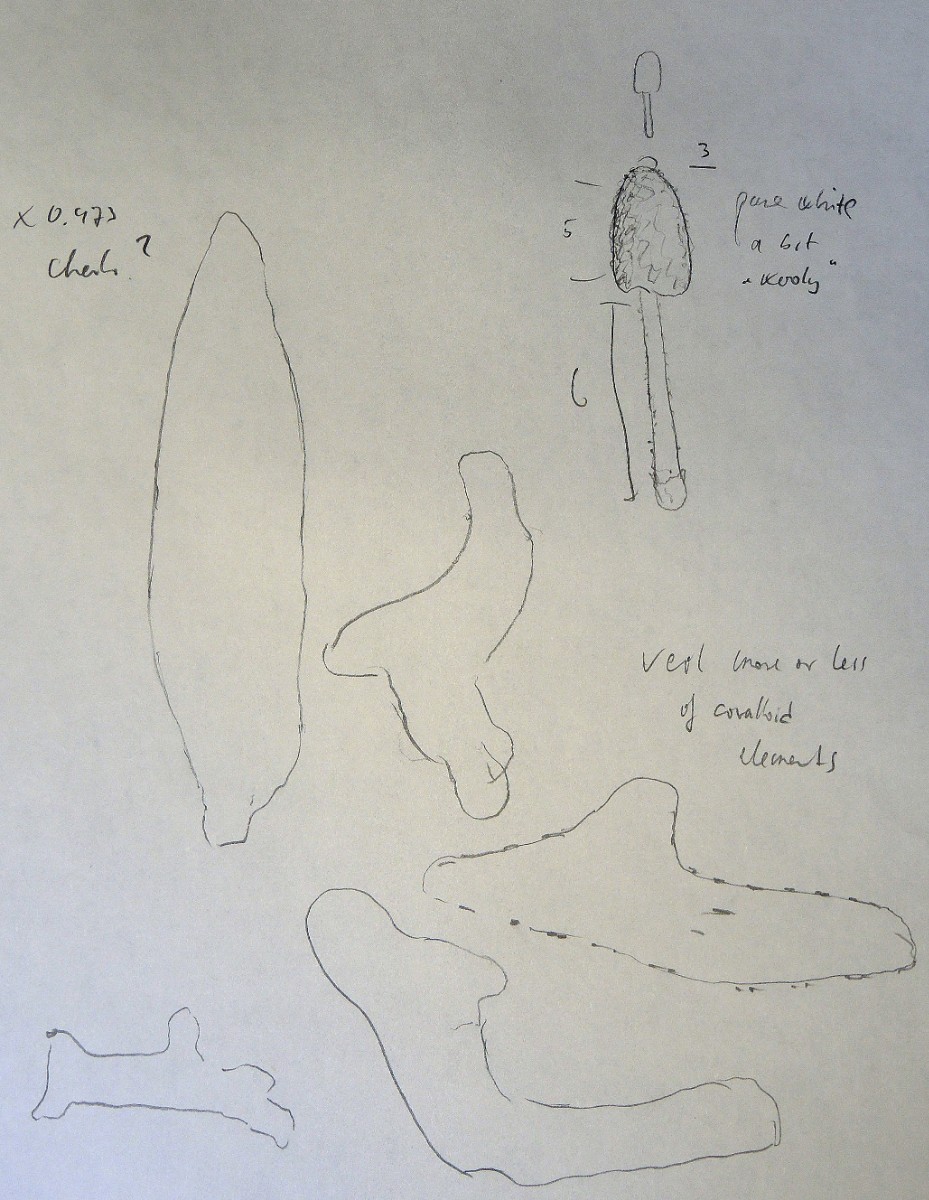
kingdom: Fungi
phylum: Basidiomycota
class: Agaricomycetes
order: Agaricales
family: Psathyrellaceae
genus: Coprinopsis
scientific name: Coprinopsis
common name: blækhat
